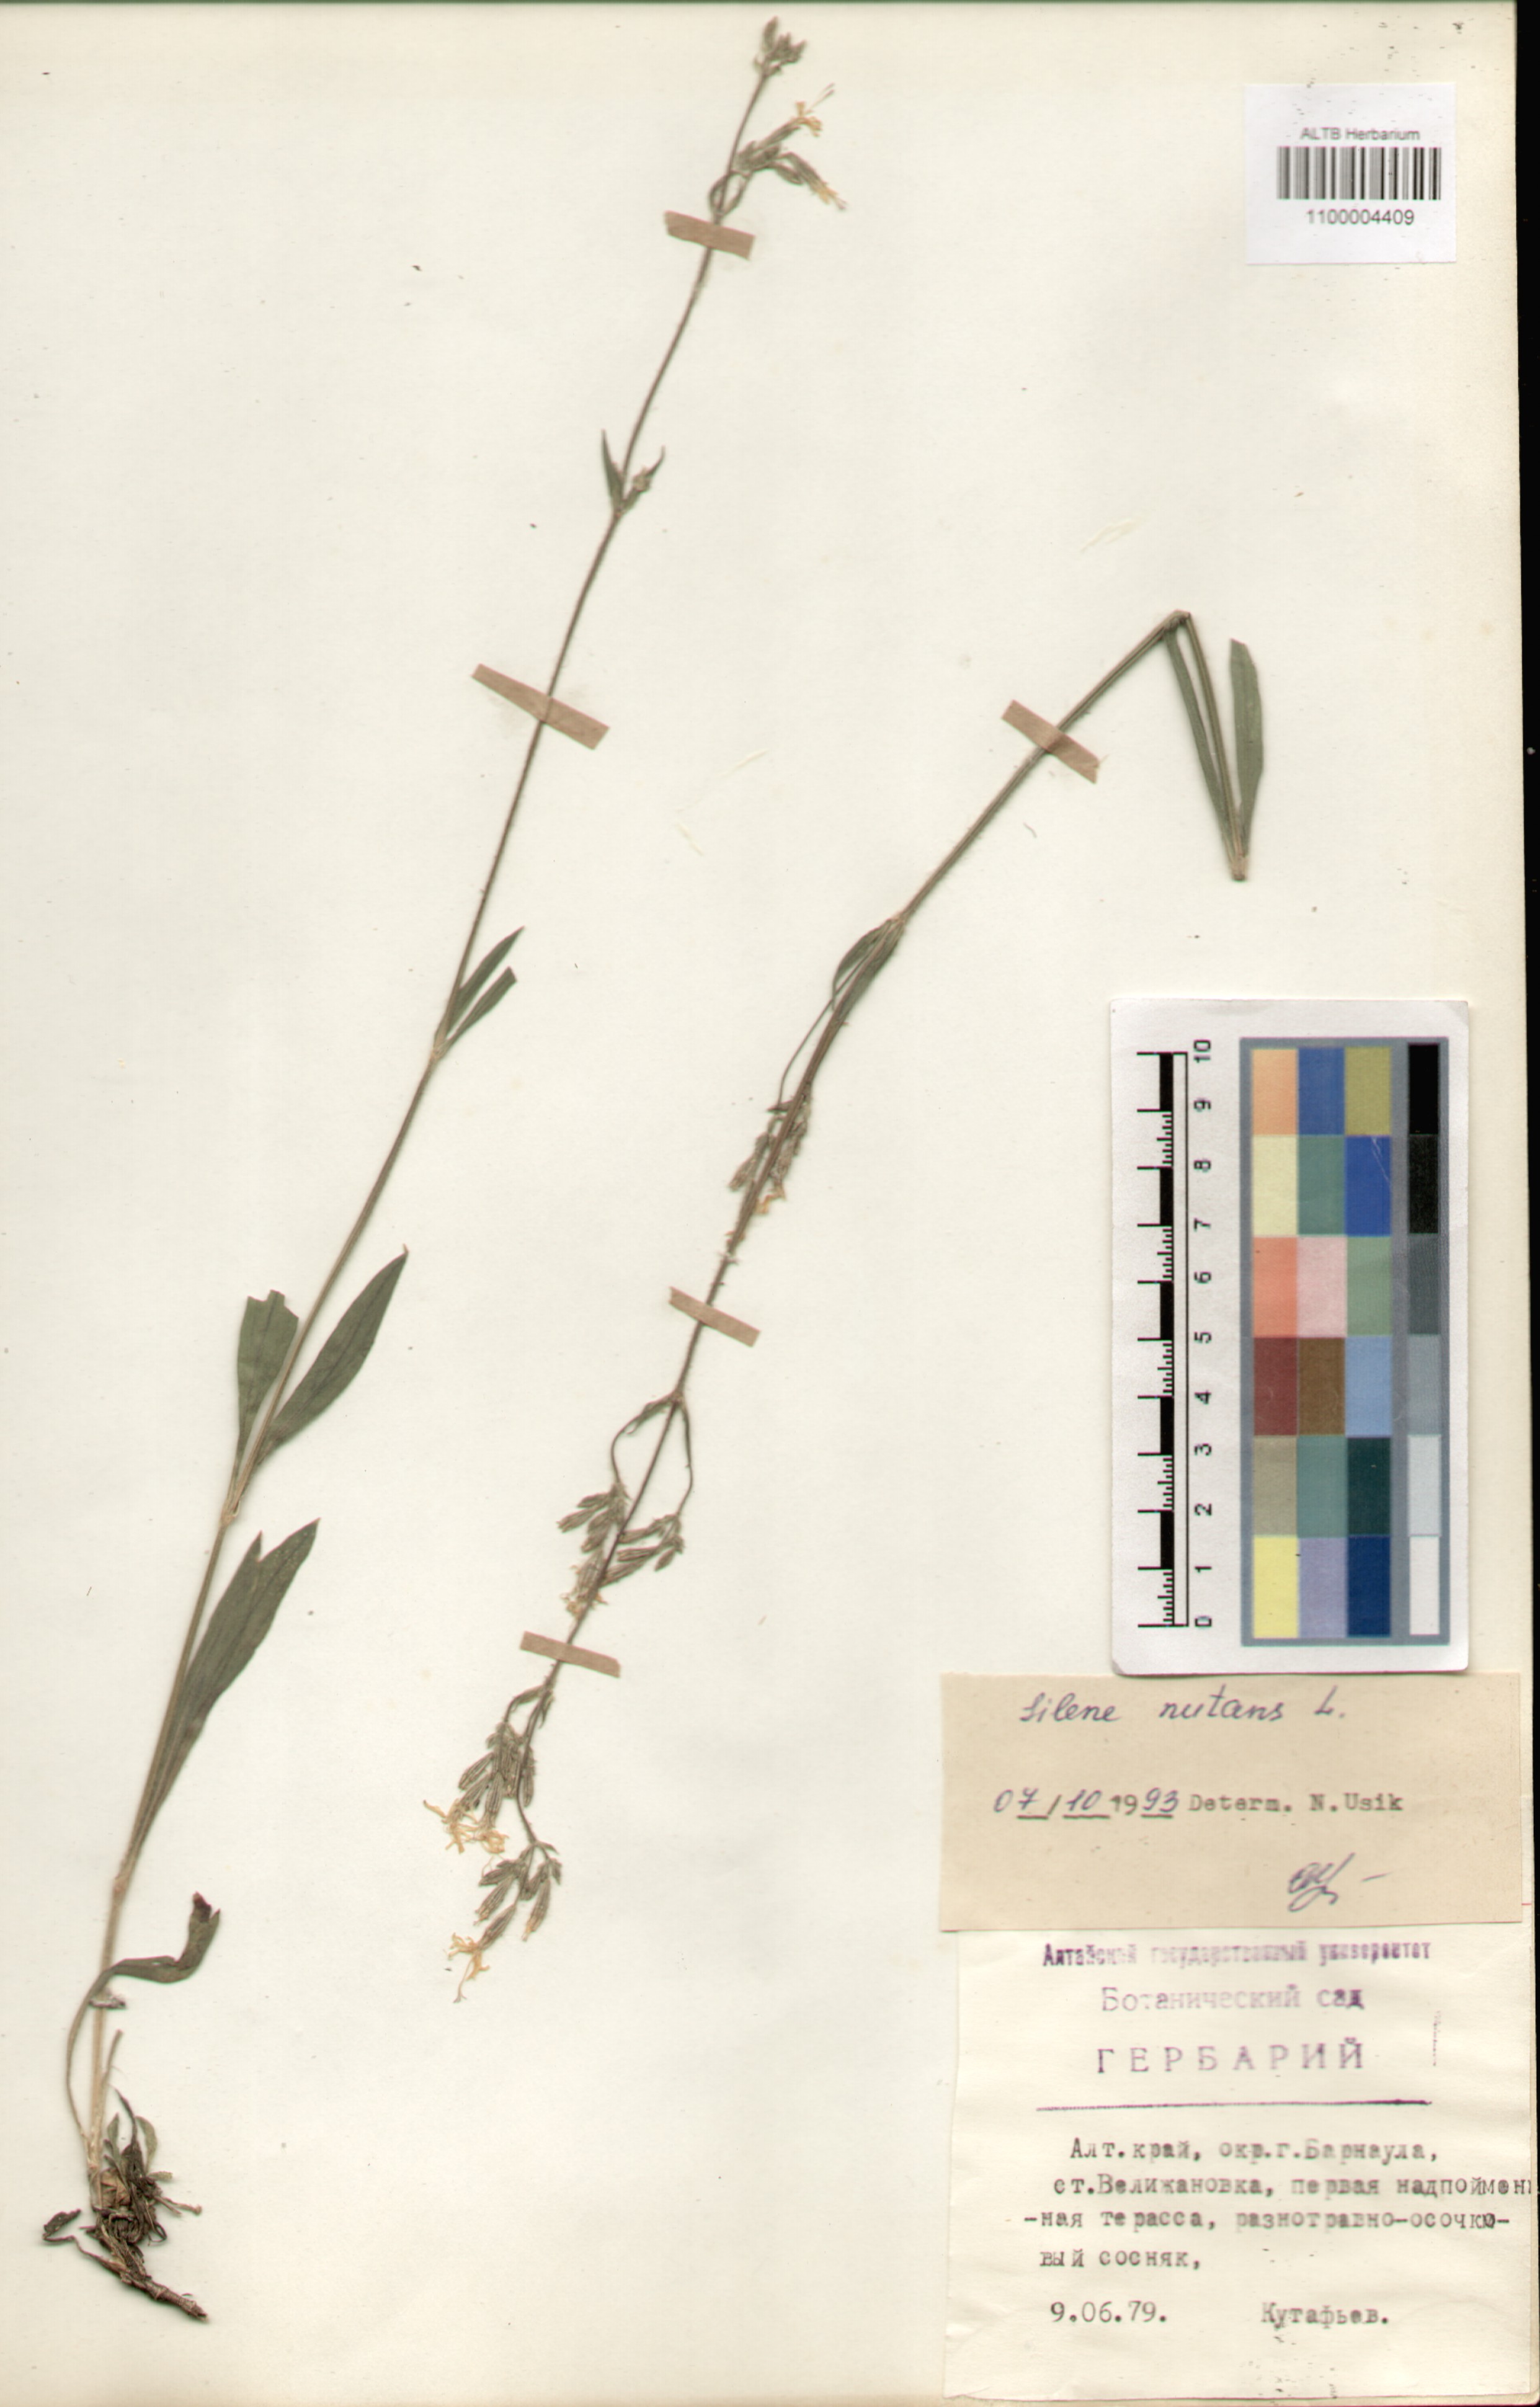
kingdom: Plantae
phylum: Tracheophyta
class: Magnoliopsida
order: Caryophyllales
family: Caryophyllaceae
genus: Silene
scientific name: Silene nutans
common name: Nottingham catchfly
